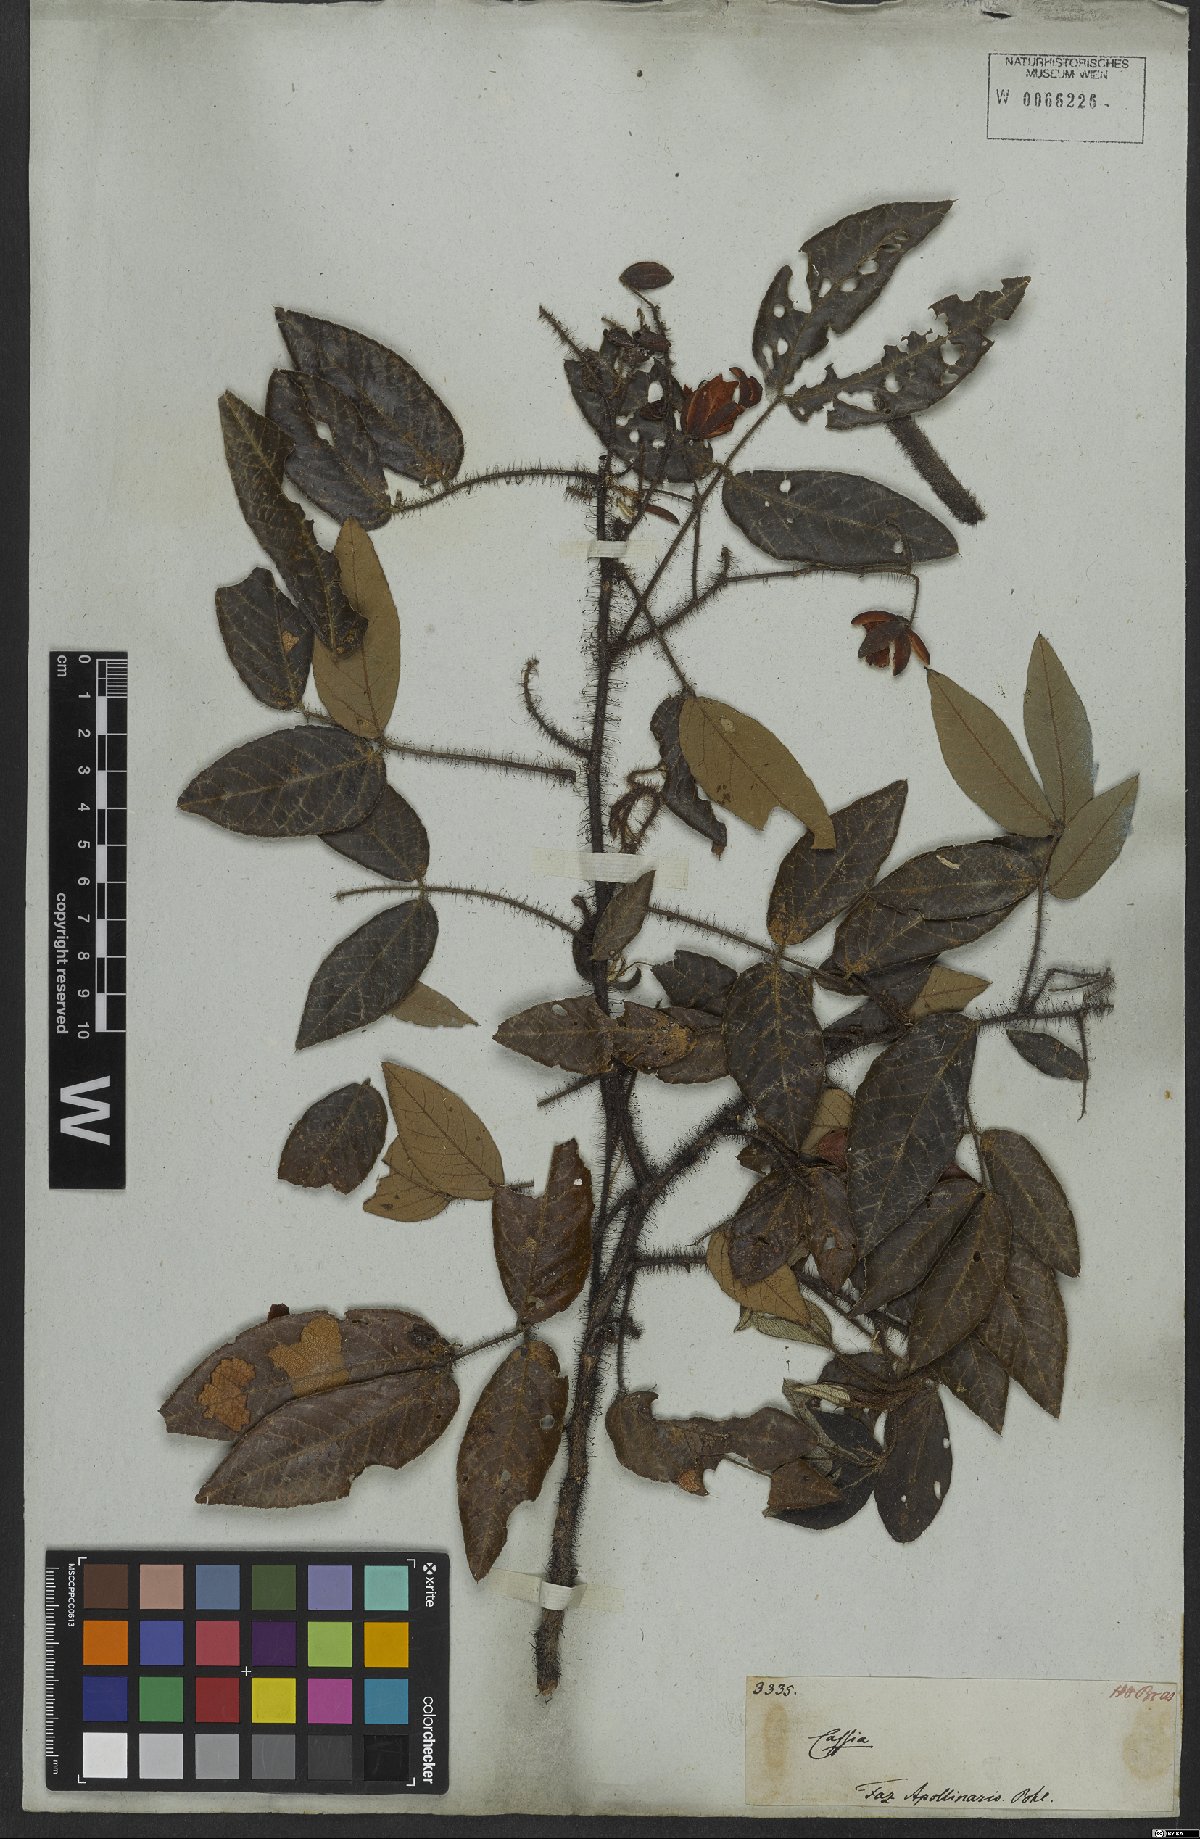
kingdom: Plantae
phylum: Tracheophyta
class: Magnoliopsida
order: Fabales
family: Fabaceae
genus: Chamaecrista
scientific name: Chamaecrista setosa
